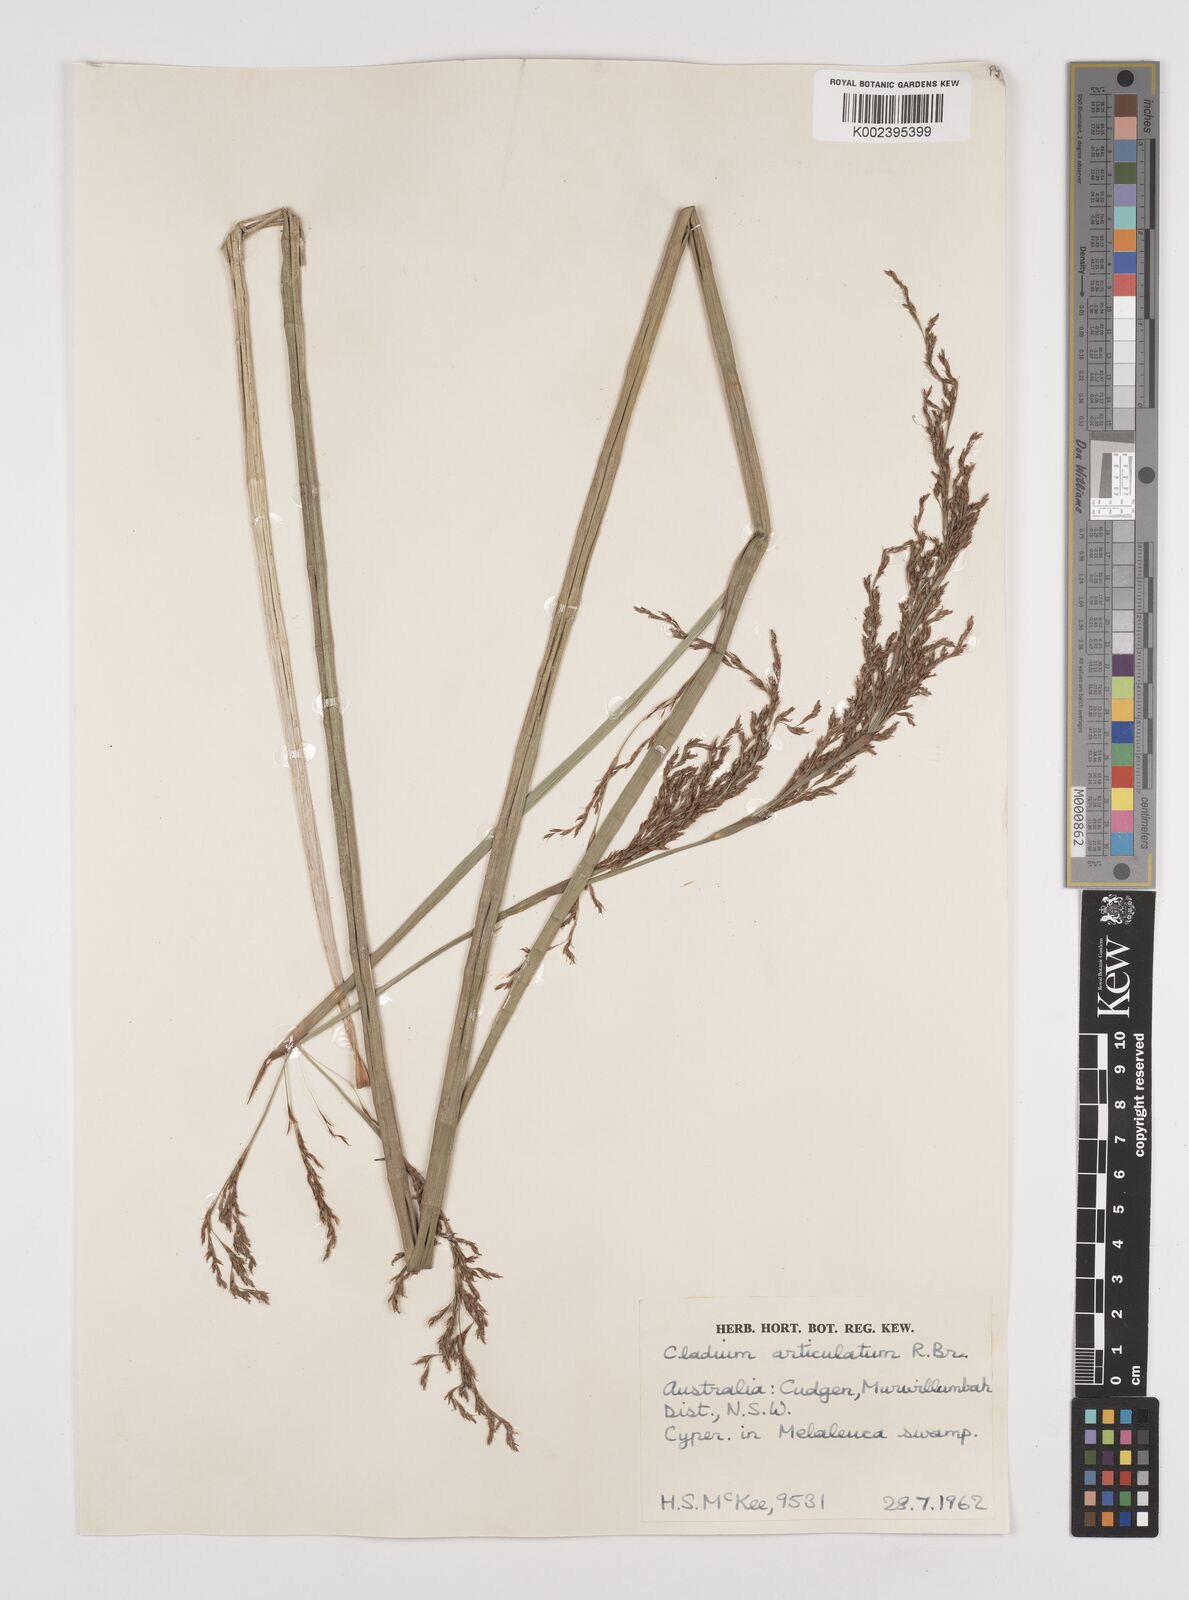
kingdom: Plantae
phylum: Tracheophyta
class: Liliopsida
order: Poales
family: Cyperaceae
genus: Machaerina
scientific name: Machaerina articulata
